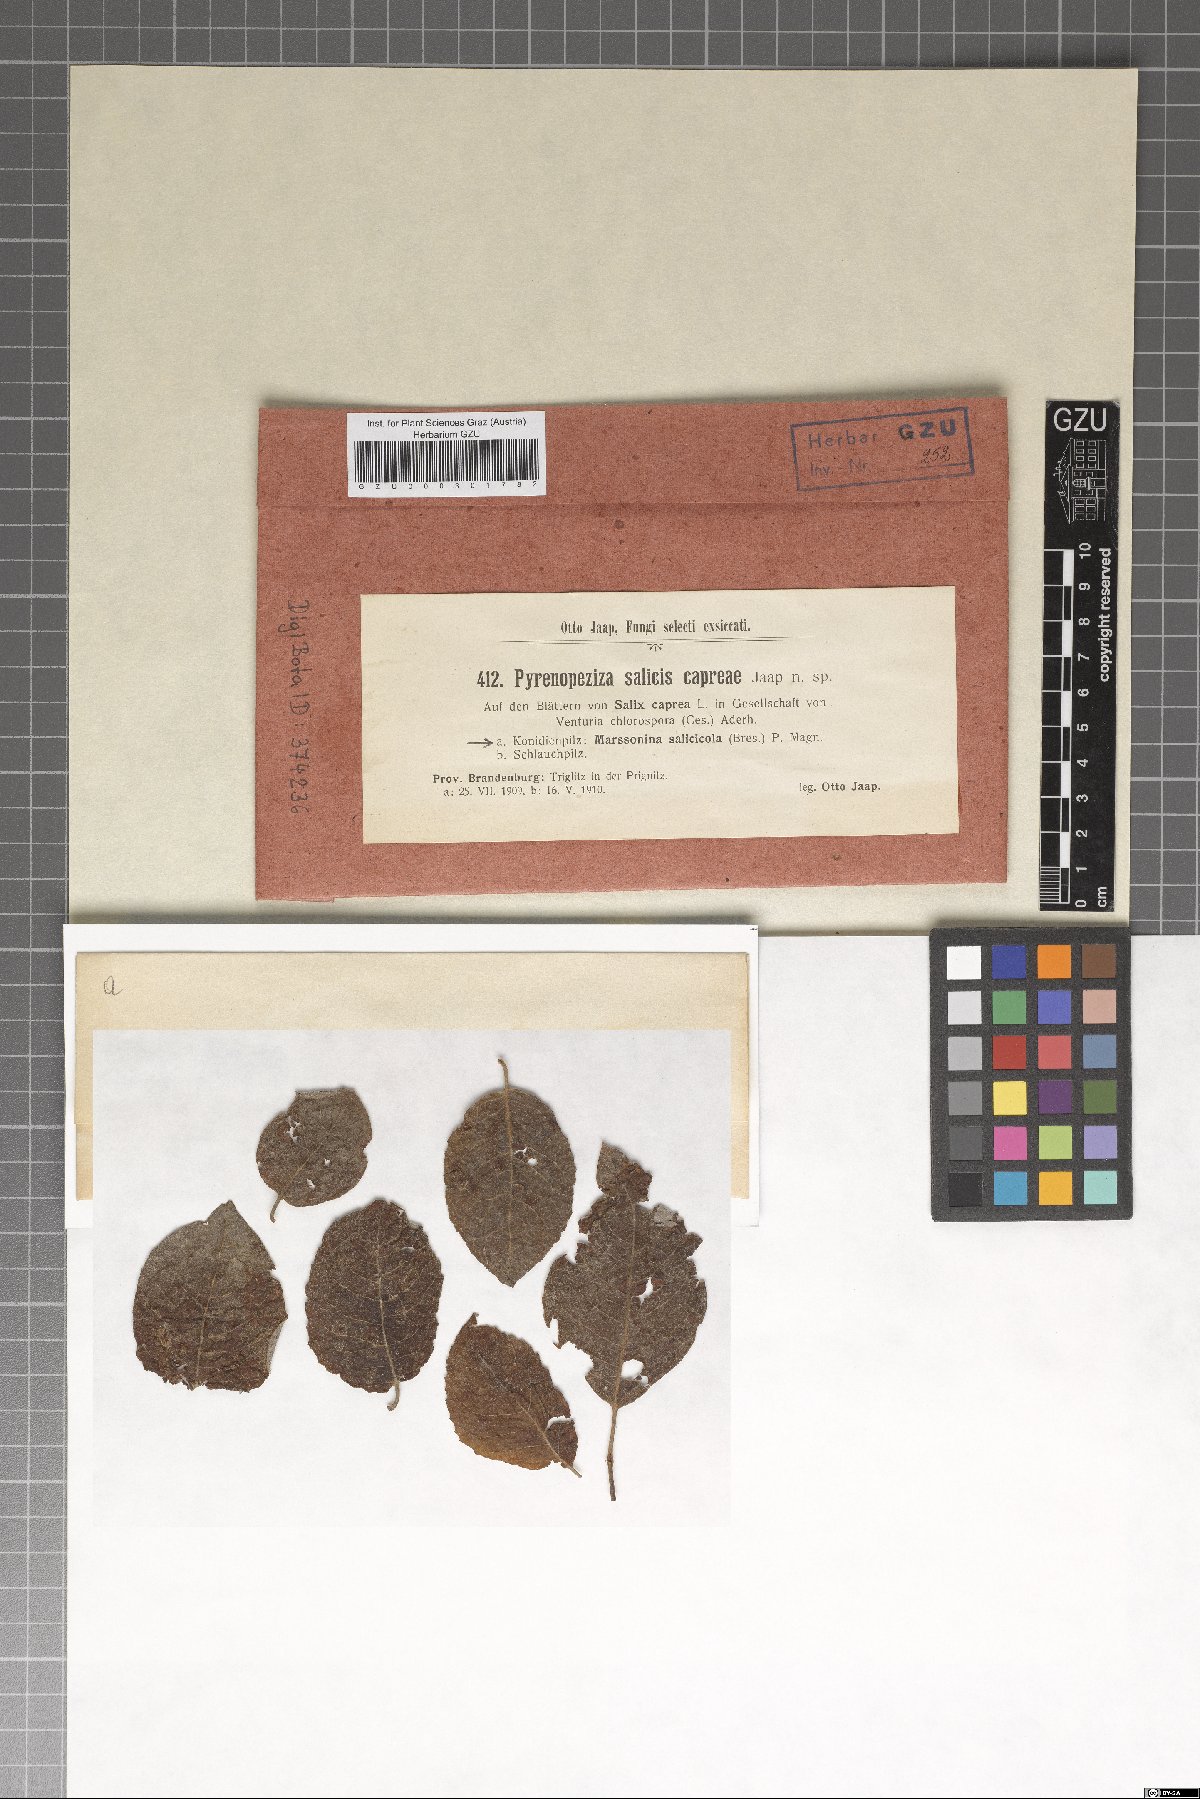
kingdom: Fungi
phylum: Ascomycota
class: Leotiomycetes
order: Helotiales
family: Ploettnerulaceae
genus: Pyrenopeziza
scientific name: Pyrenopeziza salicis-capreae
